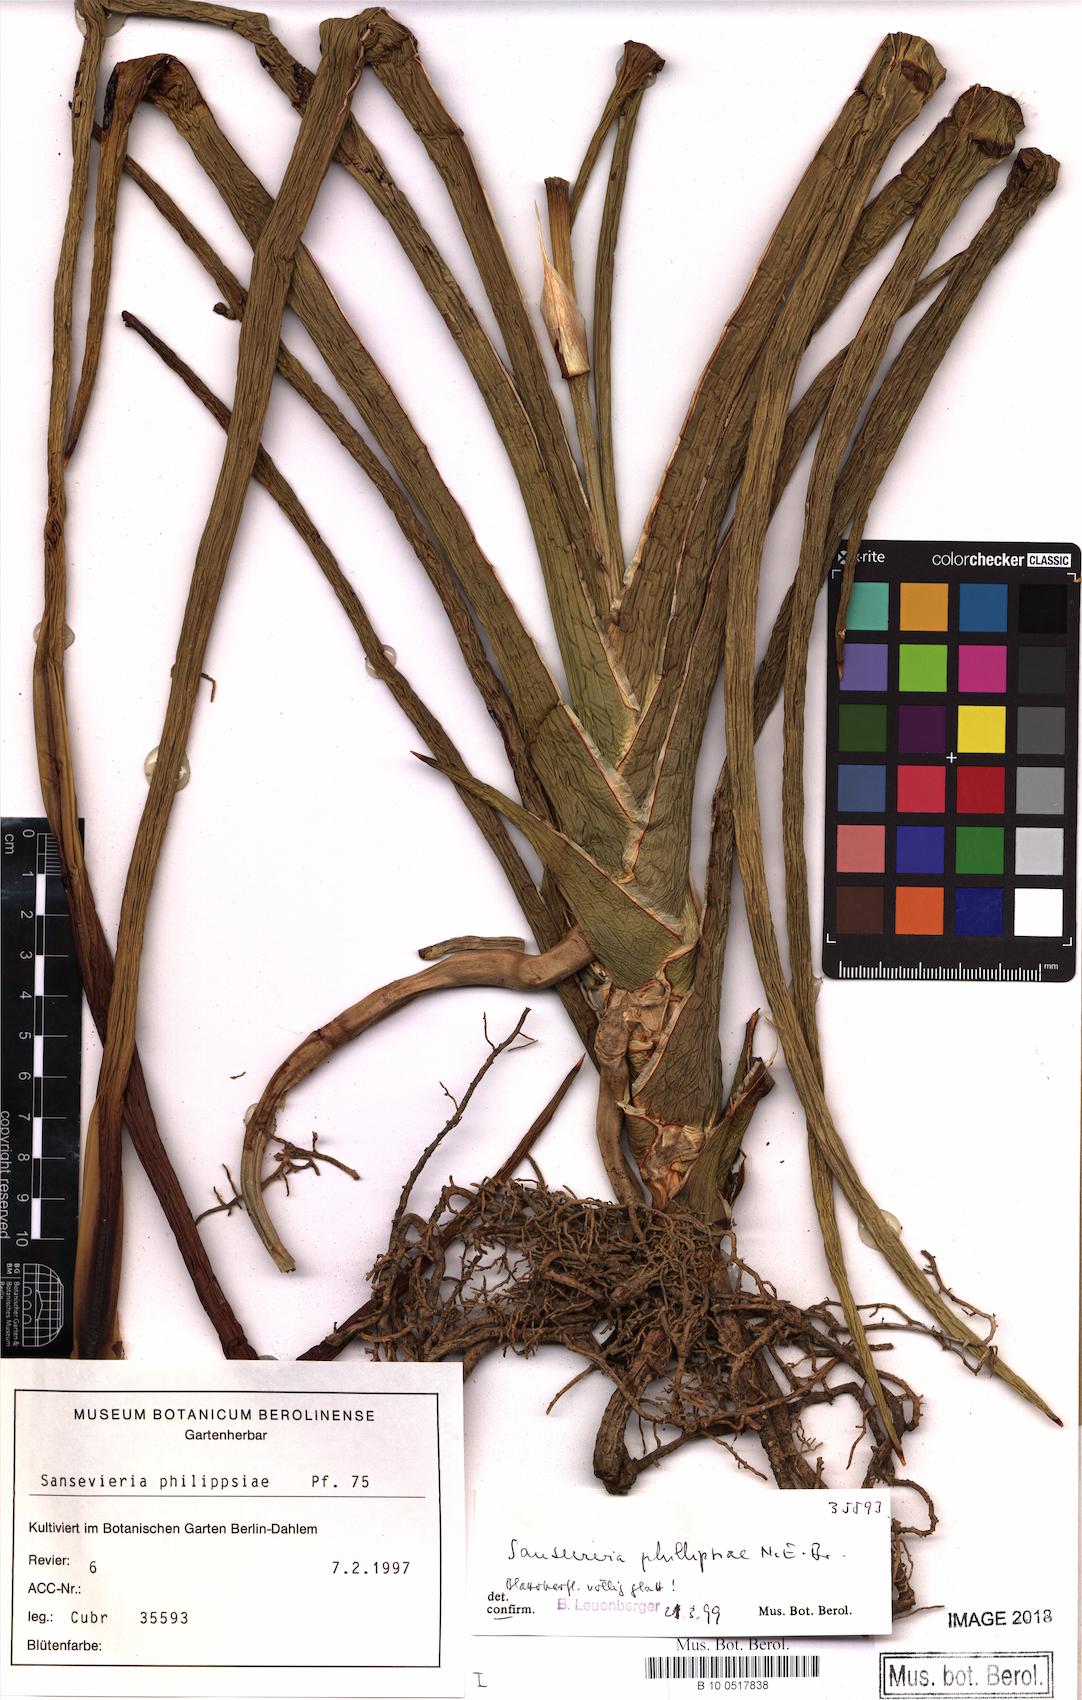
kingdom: Plantae
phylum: Tracheophyta
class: Liliopsida
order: Asparagales
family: Asparagaceae
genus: Dracaena
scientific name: Dracaena phillipsiae
